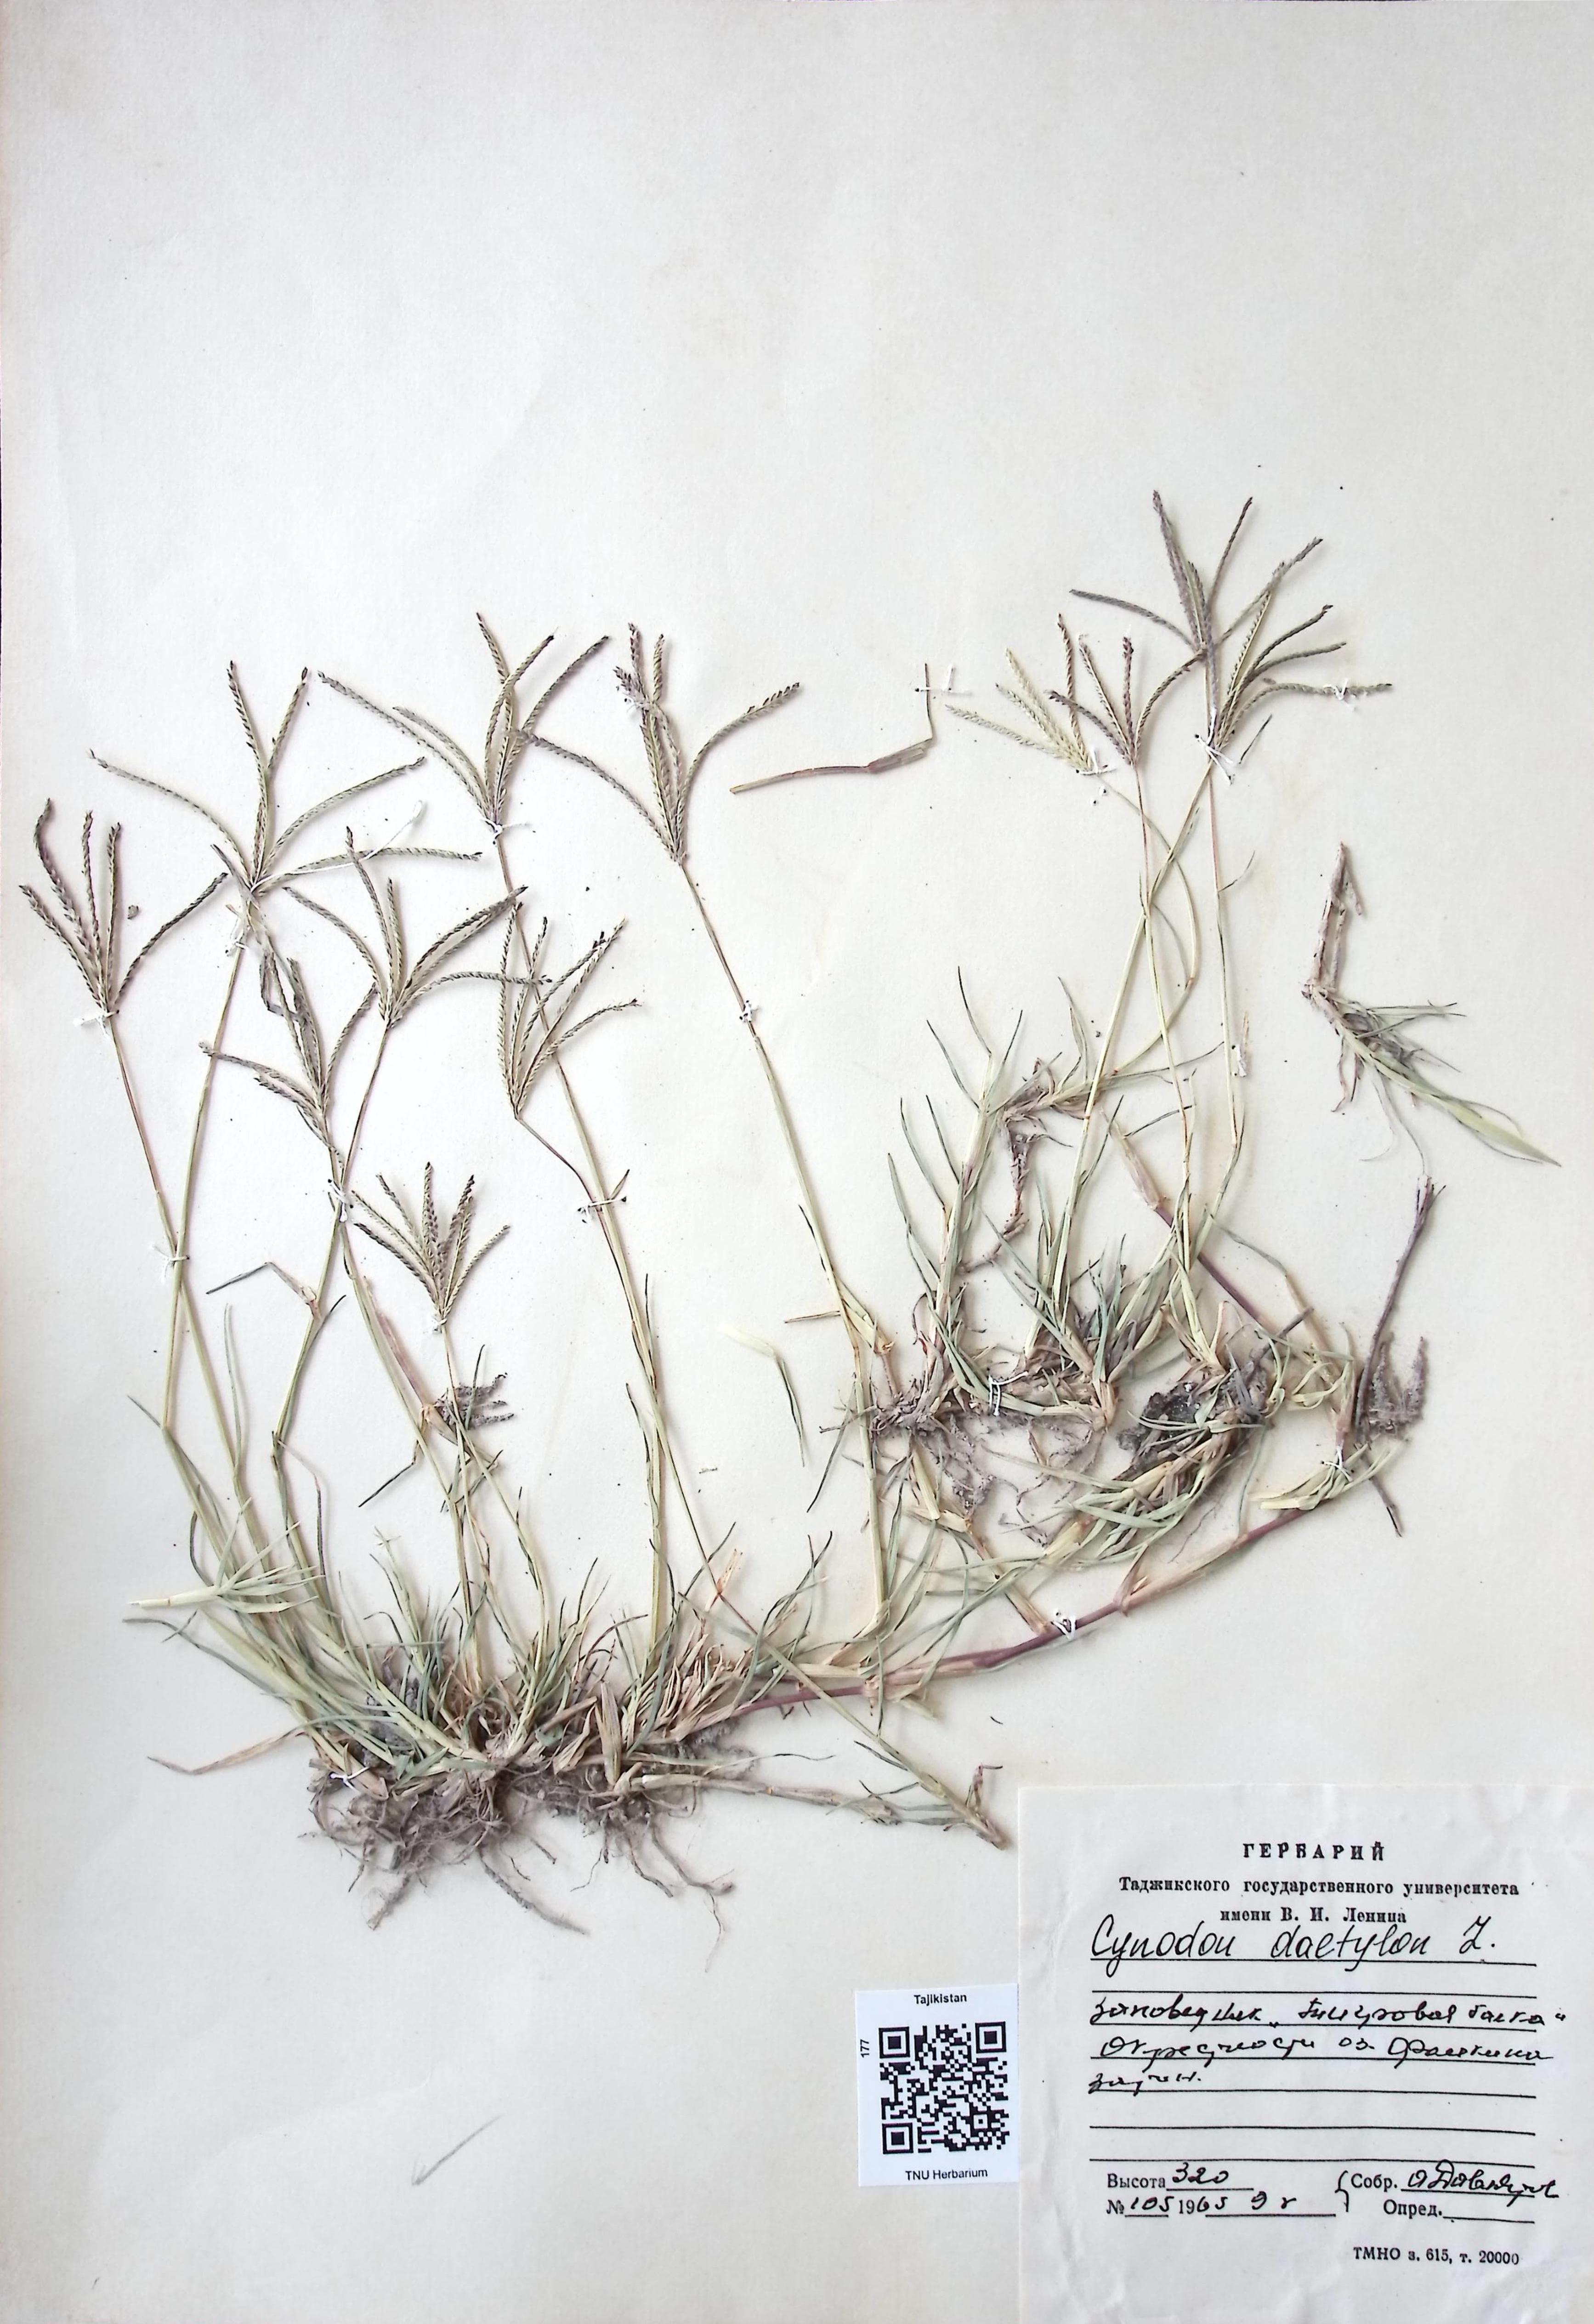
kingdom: Plantae
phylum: Tracheophyta
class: Liliopsida
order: Poales
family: Poaceae
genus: Cynodon
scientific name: Cynodon dactylon
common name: Bermuda grass
